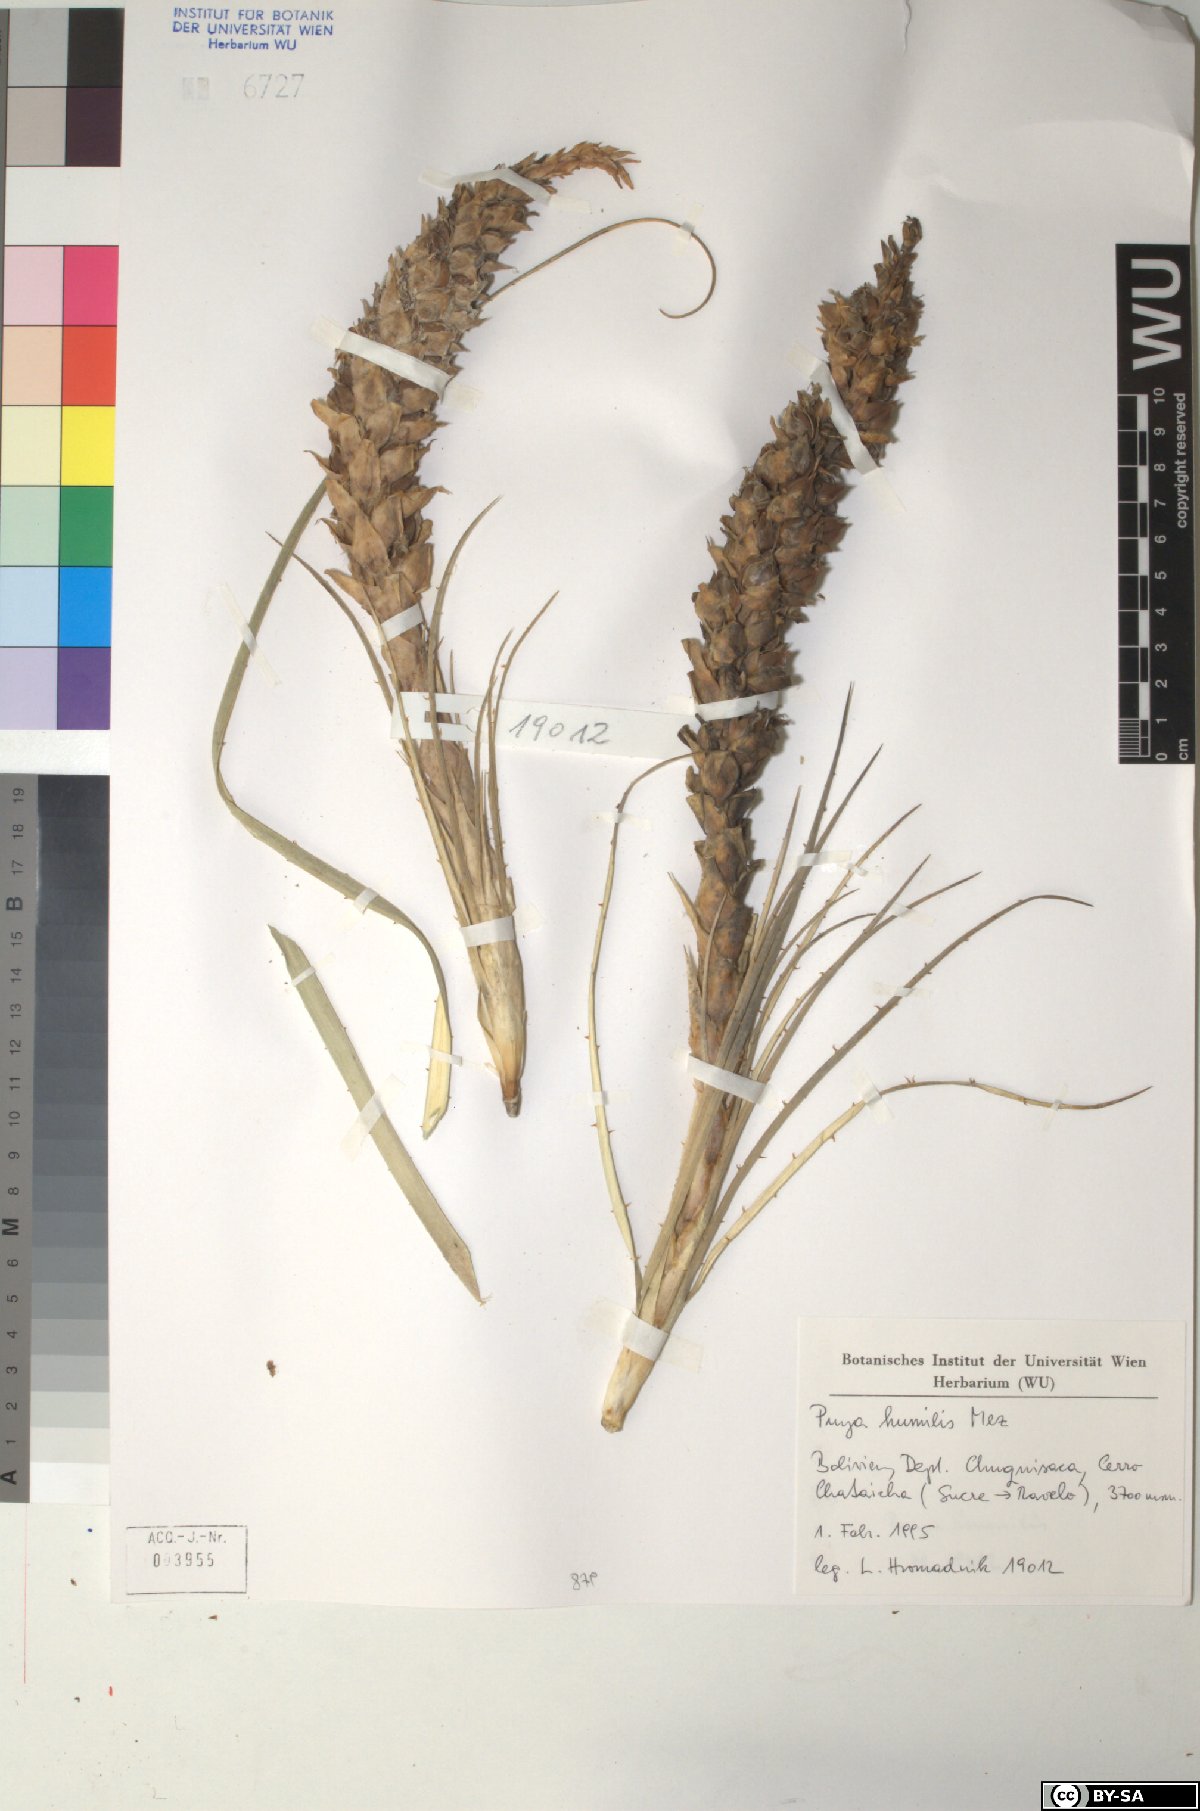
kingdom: Plantae
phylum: Tracheophyta
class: Liliopsida
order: Poales
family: Bromeliaceae
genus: Puya
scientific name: Puya humilis
